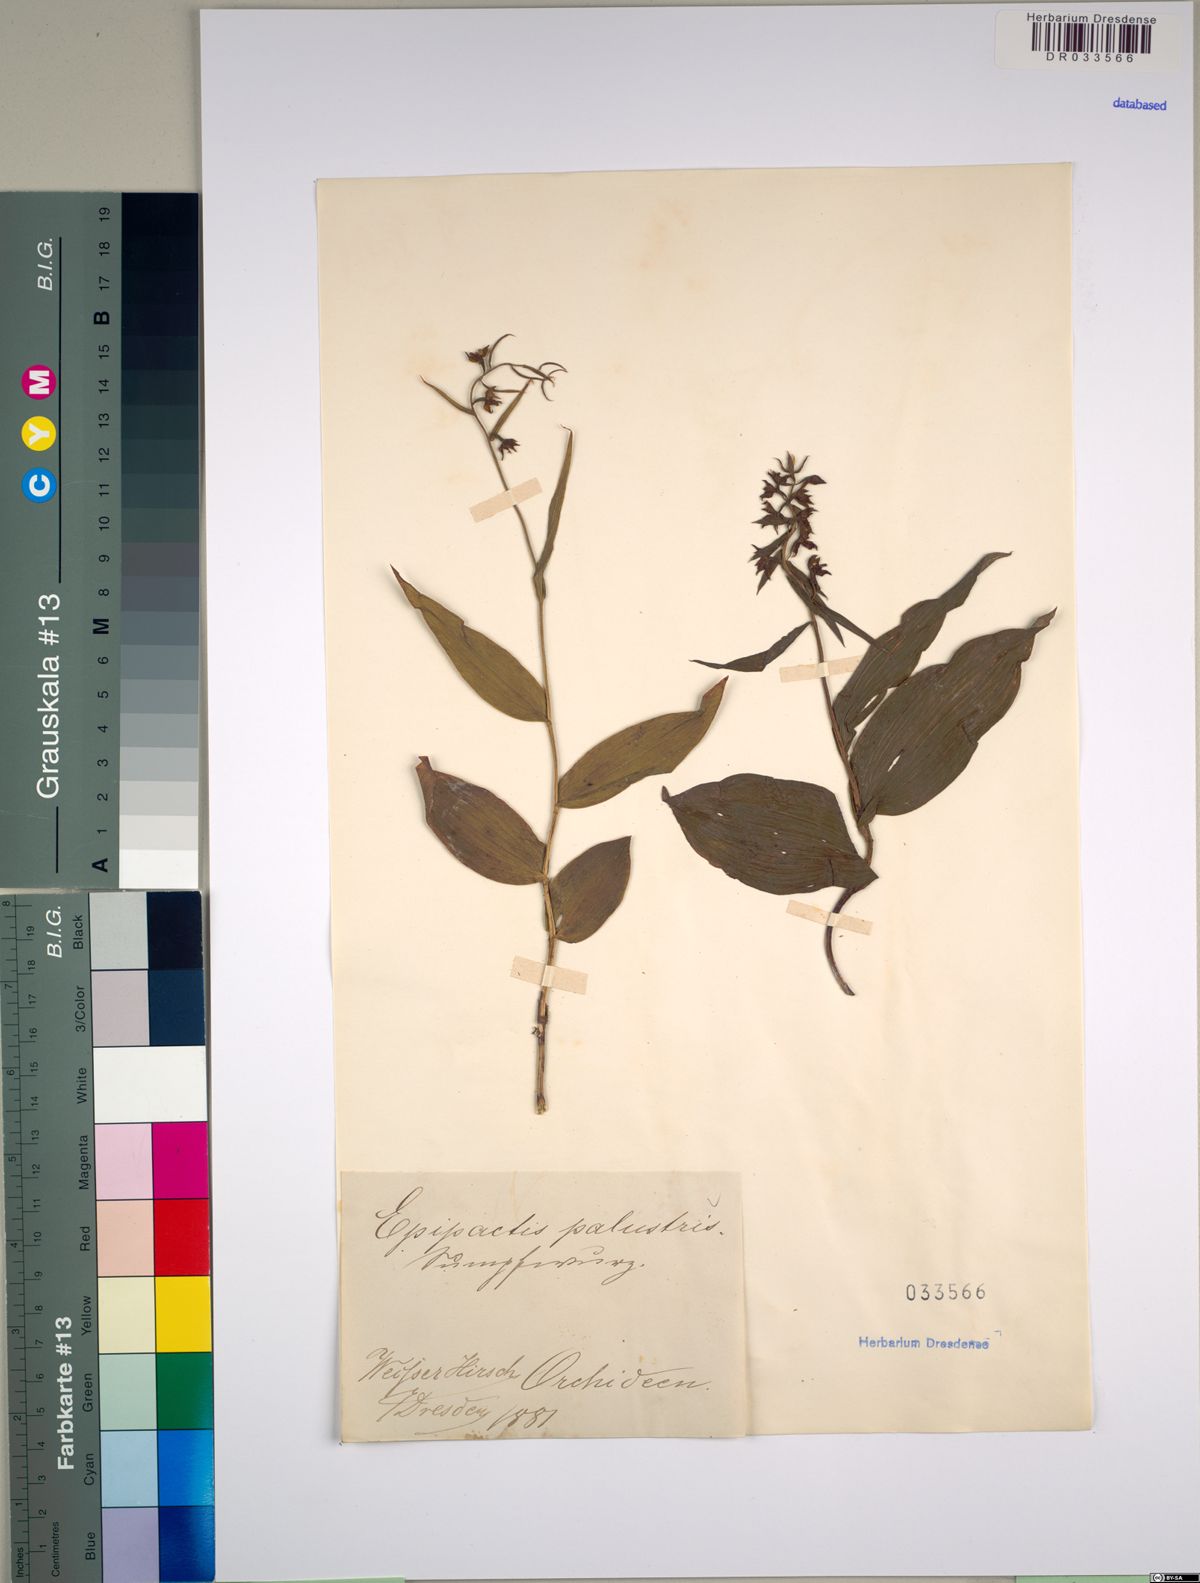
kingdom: Plantae
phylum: Tracheophyta
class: Liliopsida
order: Asparagales
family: Orchidaceae
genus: Epipactis
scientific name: Epipactis palustris
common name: Marsh helleborine
